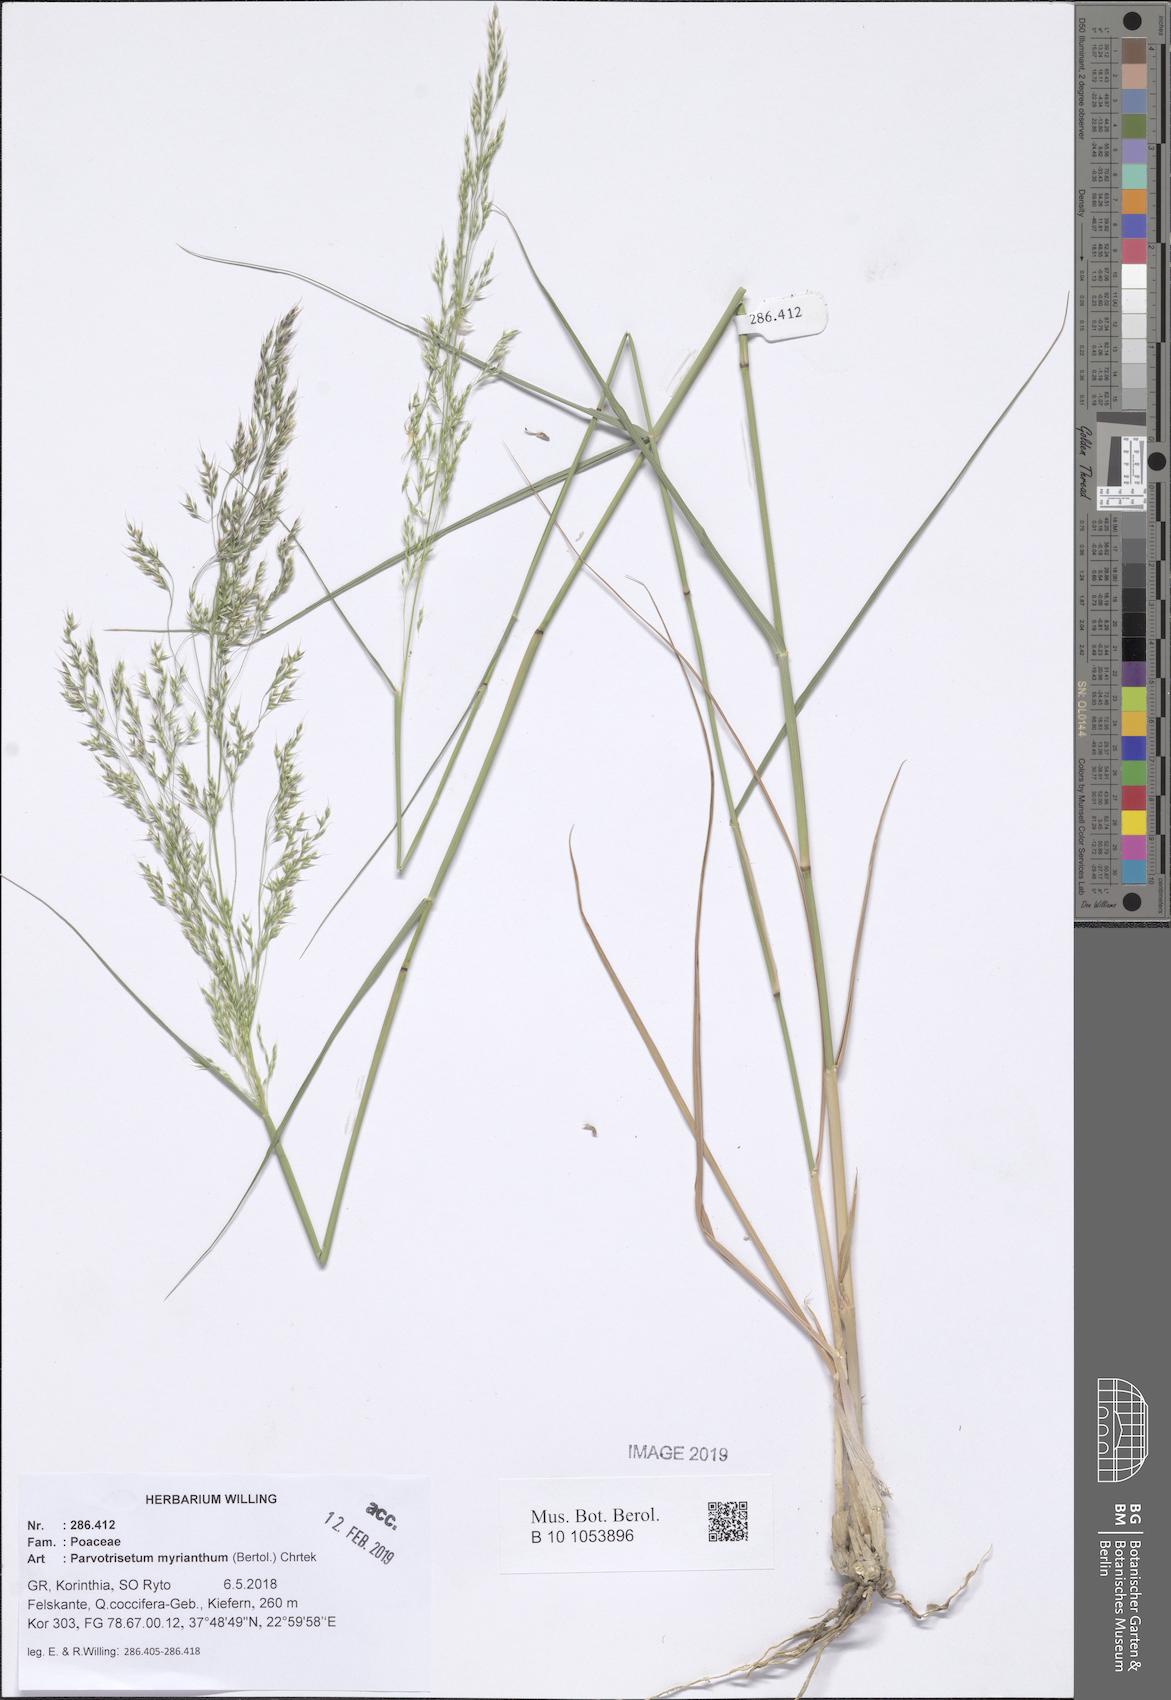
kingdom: Plantae
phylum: Tracheophyta
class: Liliopsida
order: Poales
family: Poaceae
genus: Parvotrisetum
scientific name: Parvotrisetum myrianthum
